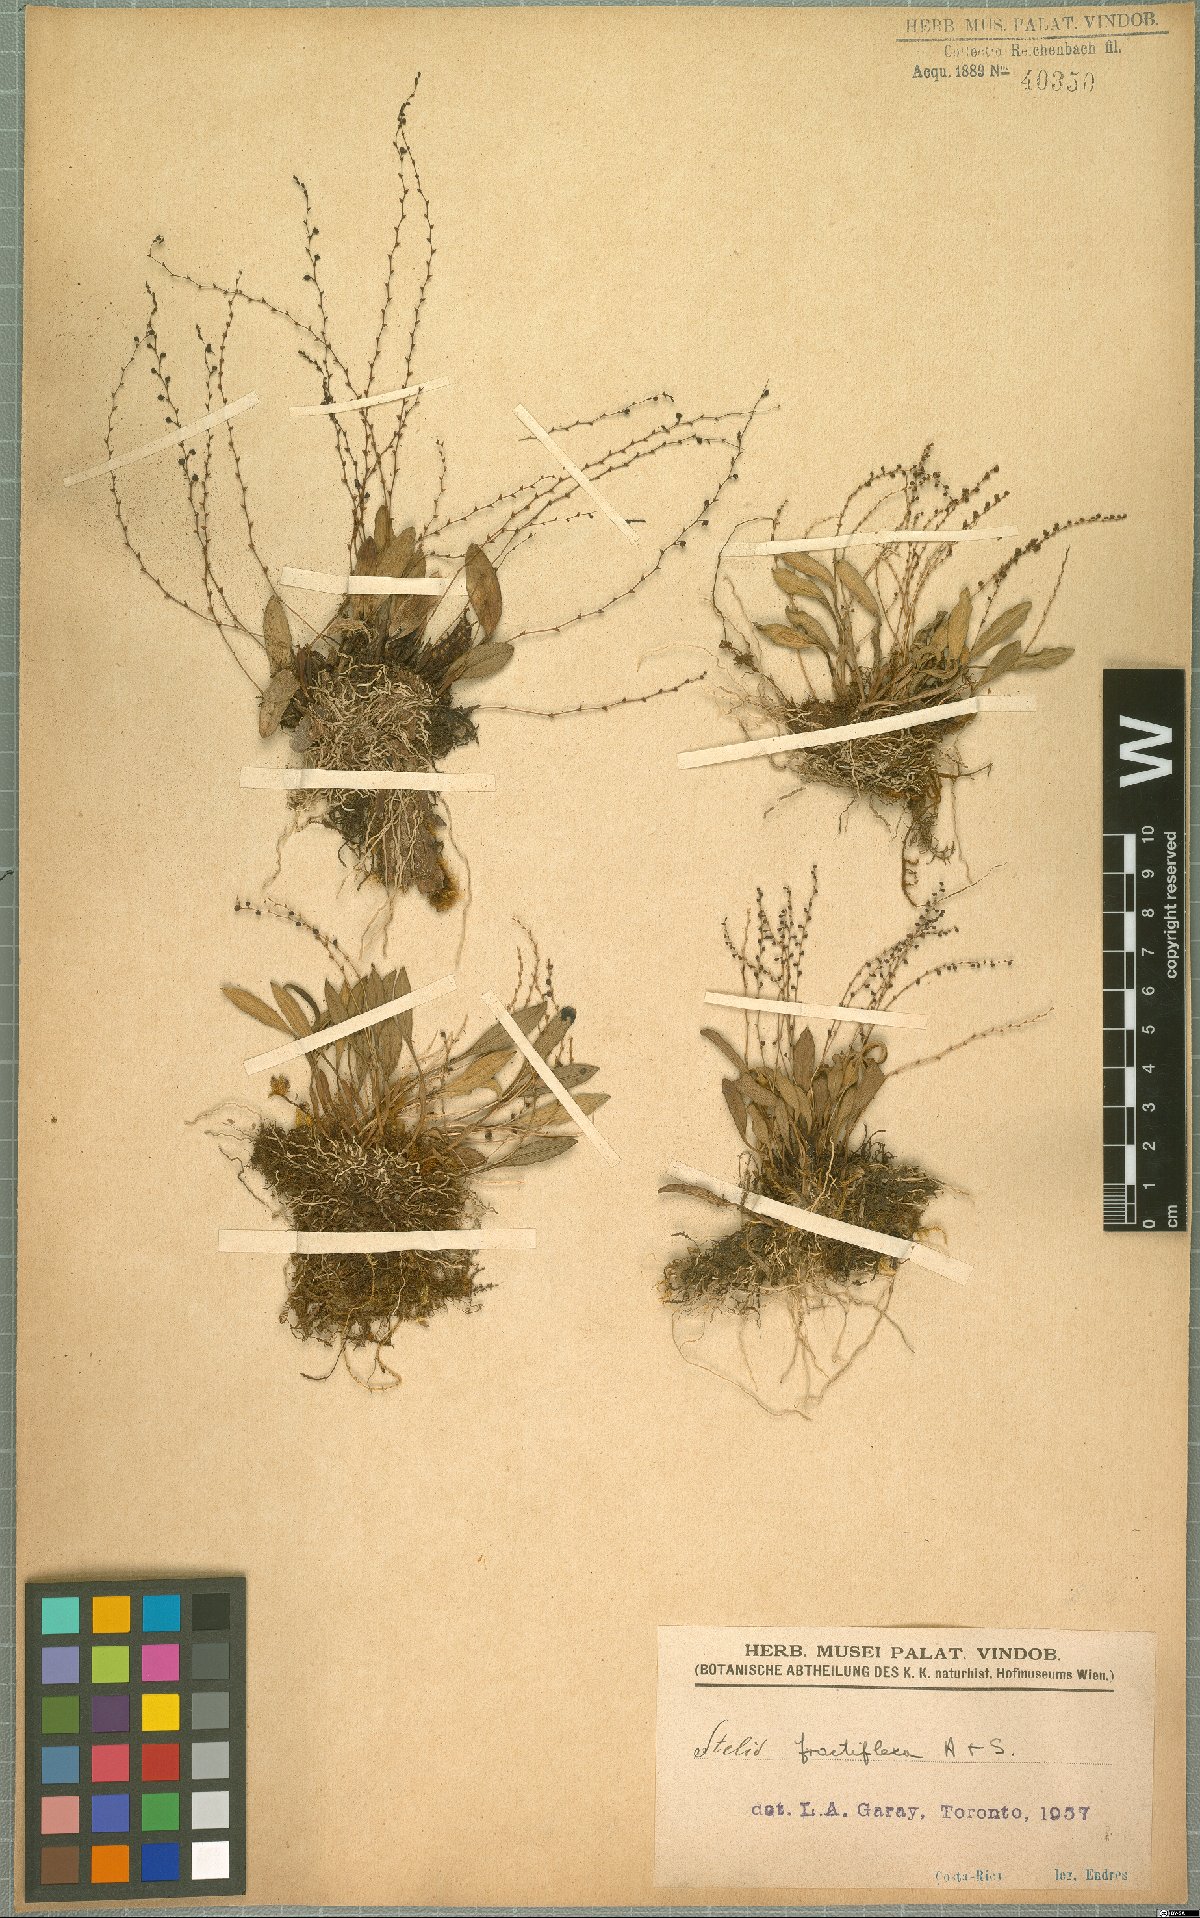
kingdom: Plantae
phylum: Tracheophyta
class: Liliopsida
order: Asparagales
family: Orchidaceae
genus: Stelis
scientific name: Stelis fractiflexa
